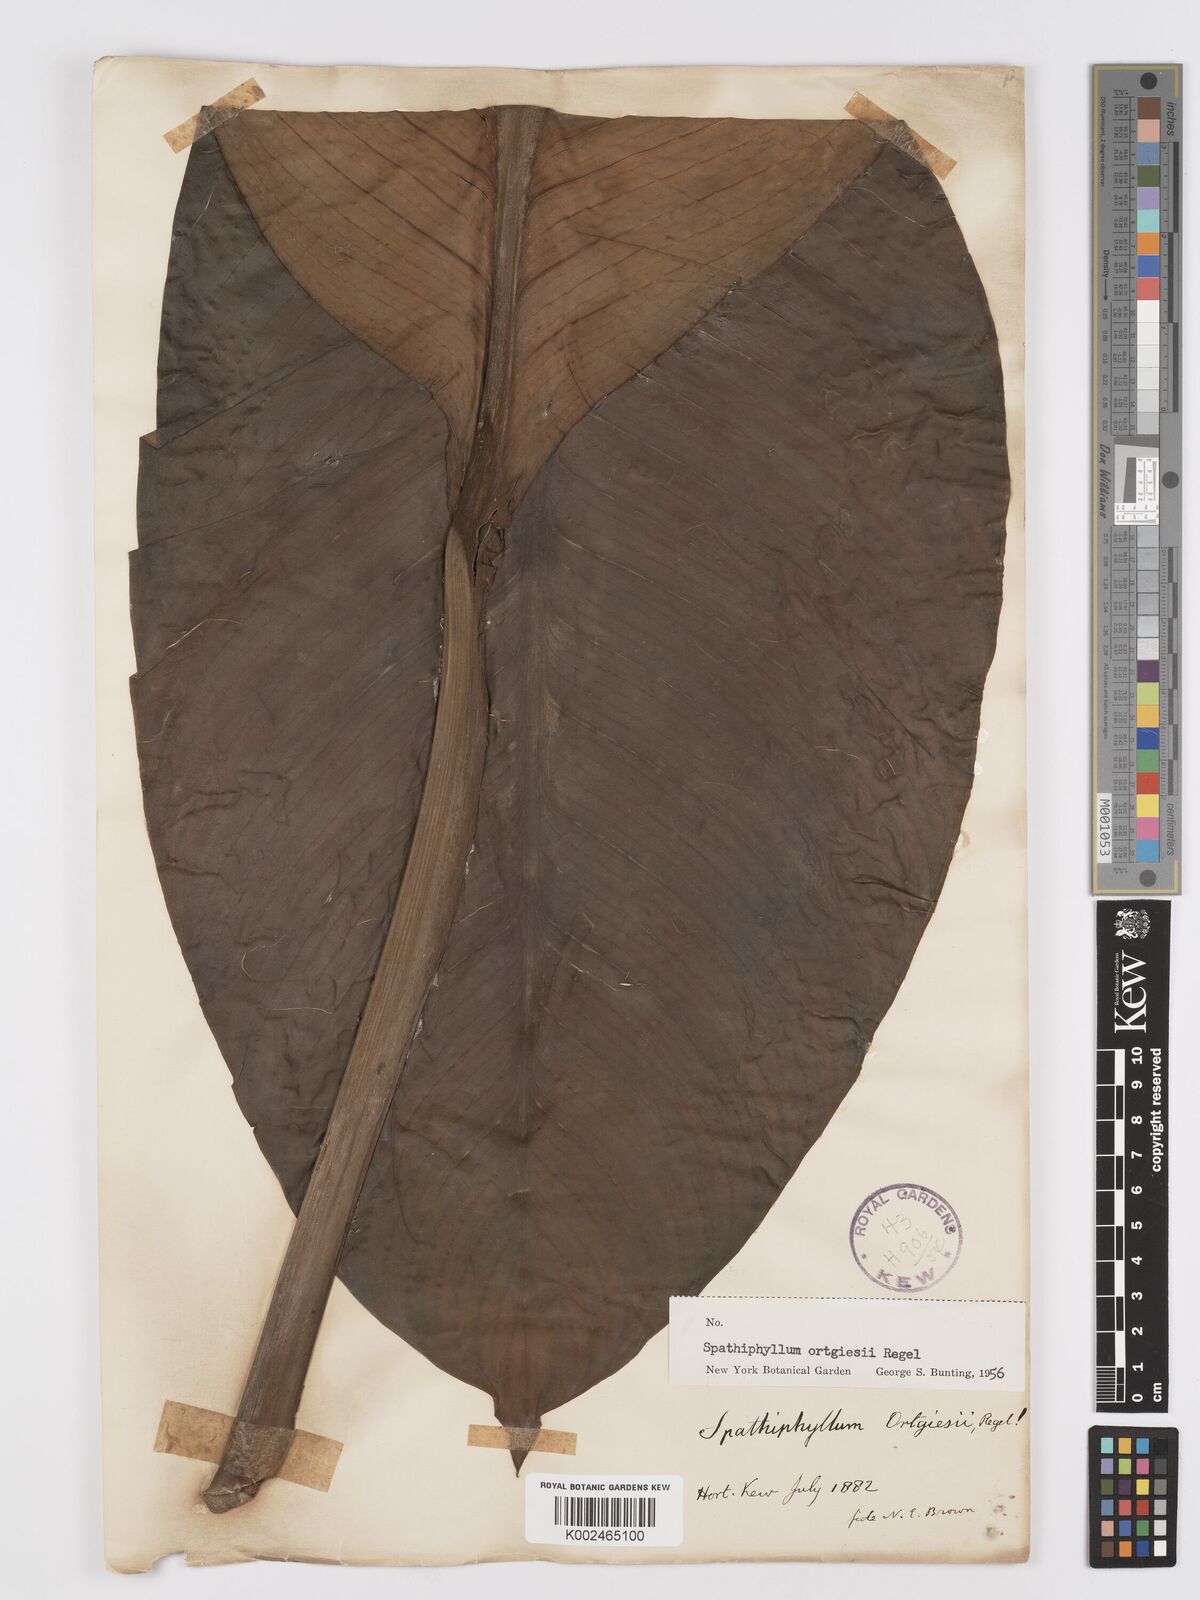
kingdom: Plantae
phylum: Tracheophyta
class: Liliopsida
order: Alismatales
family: Araceae
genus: Spathiphyllum
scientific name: Spathiphyllum ortgiesii
